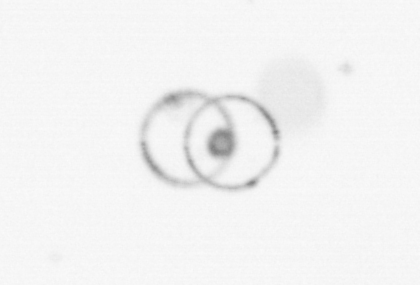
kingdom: Chromista
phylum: Myzozoa
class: Dinophyceae
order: Noctilucales
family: Noctilucaceae
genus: Noctiluca
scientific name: Noctiluca scintillans
